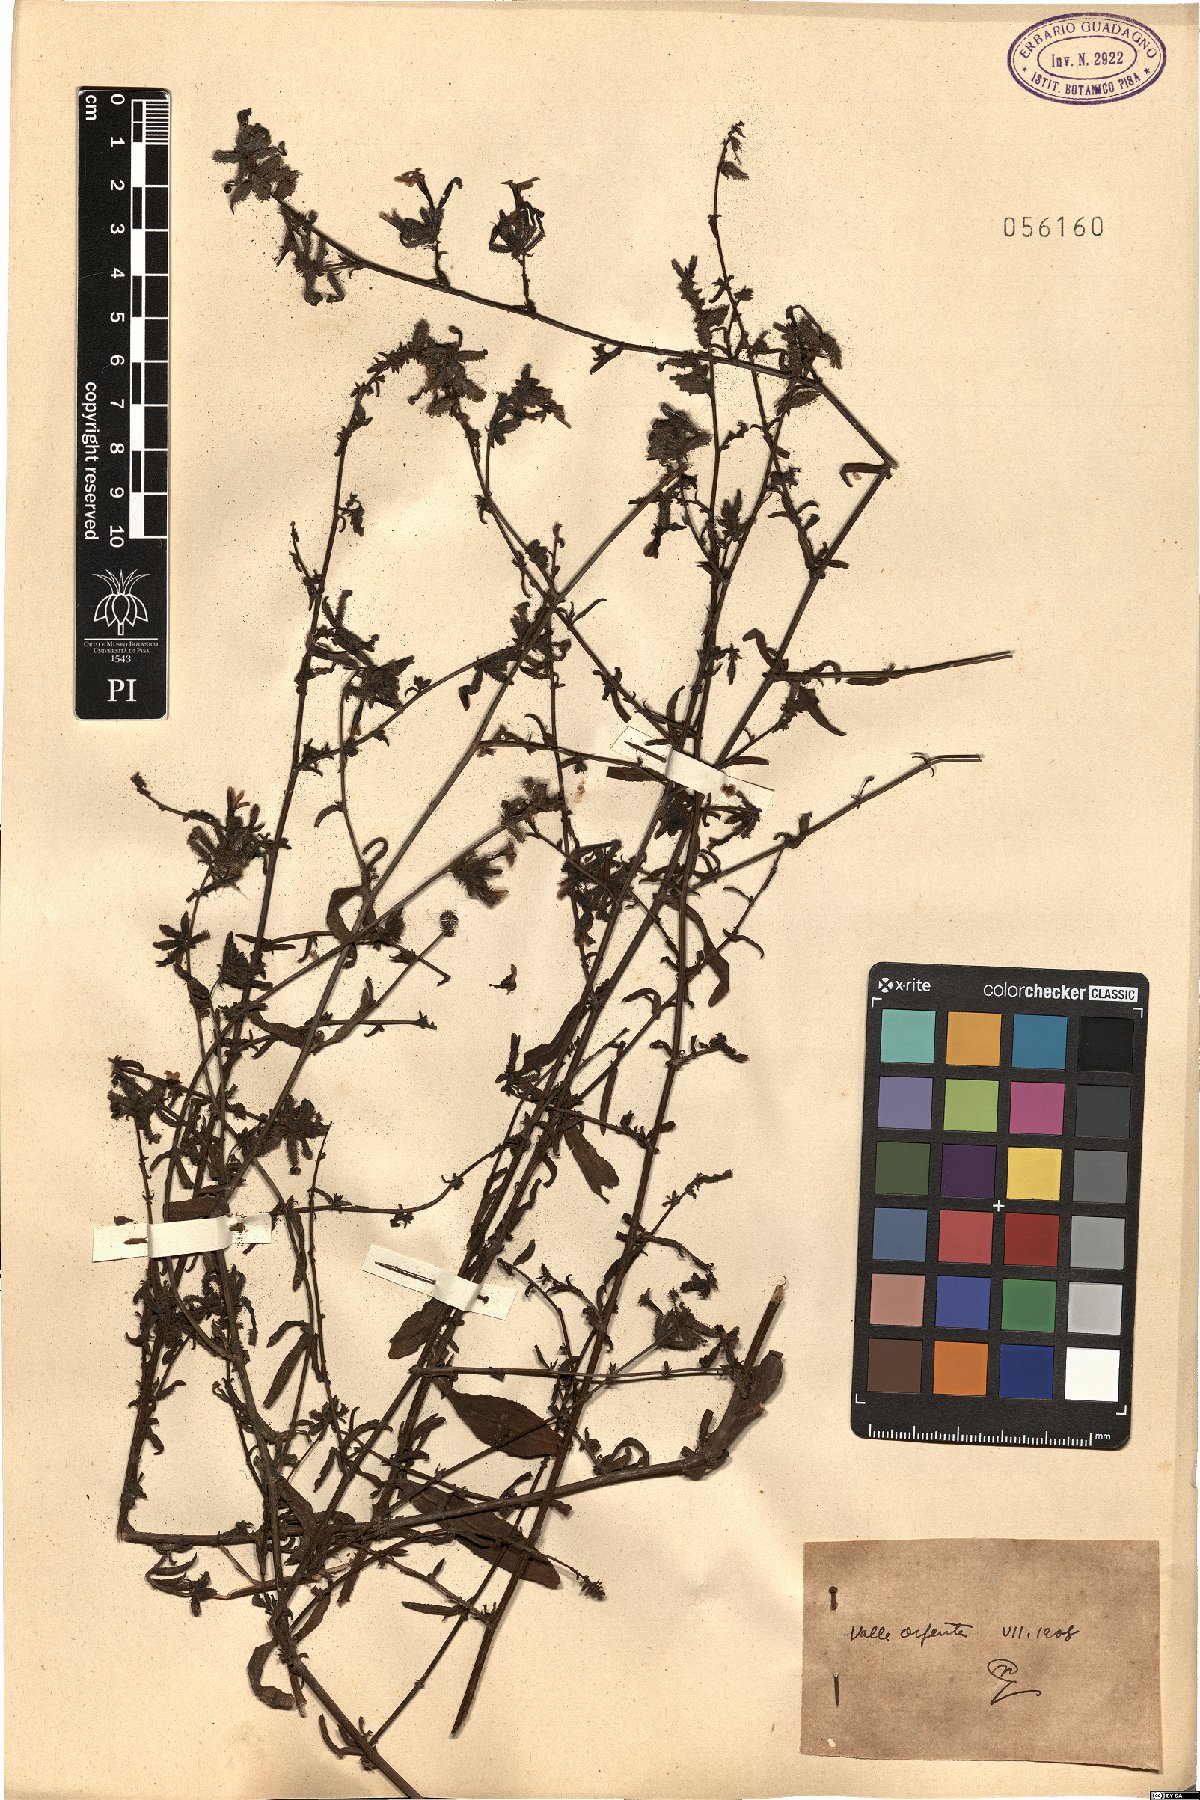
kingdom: Plantae
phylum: Tracheophyta
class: Magnoliopsida
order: Caryophyllales
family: Plumbaginaceae
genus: Plumbago
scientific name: Plumbago
